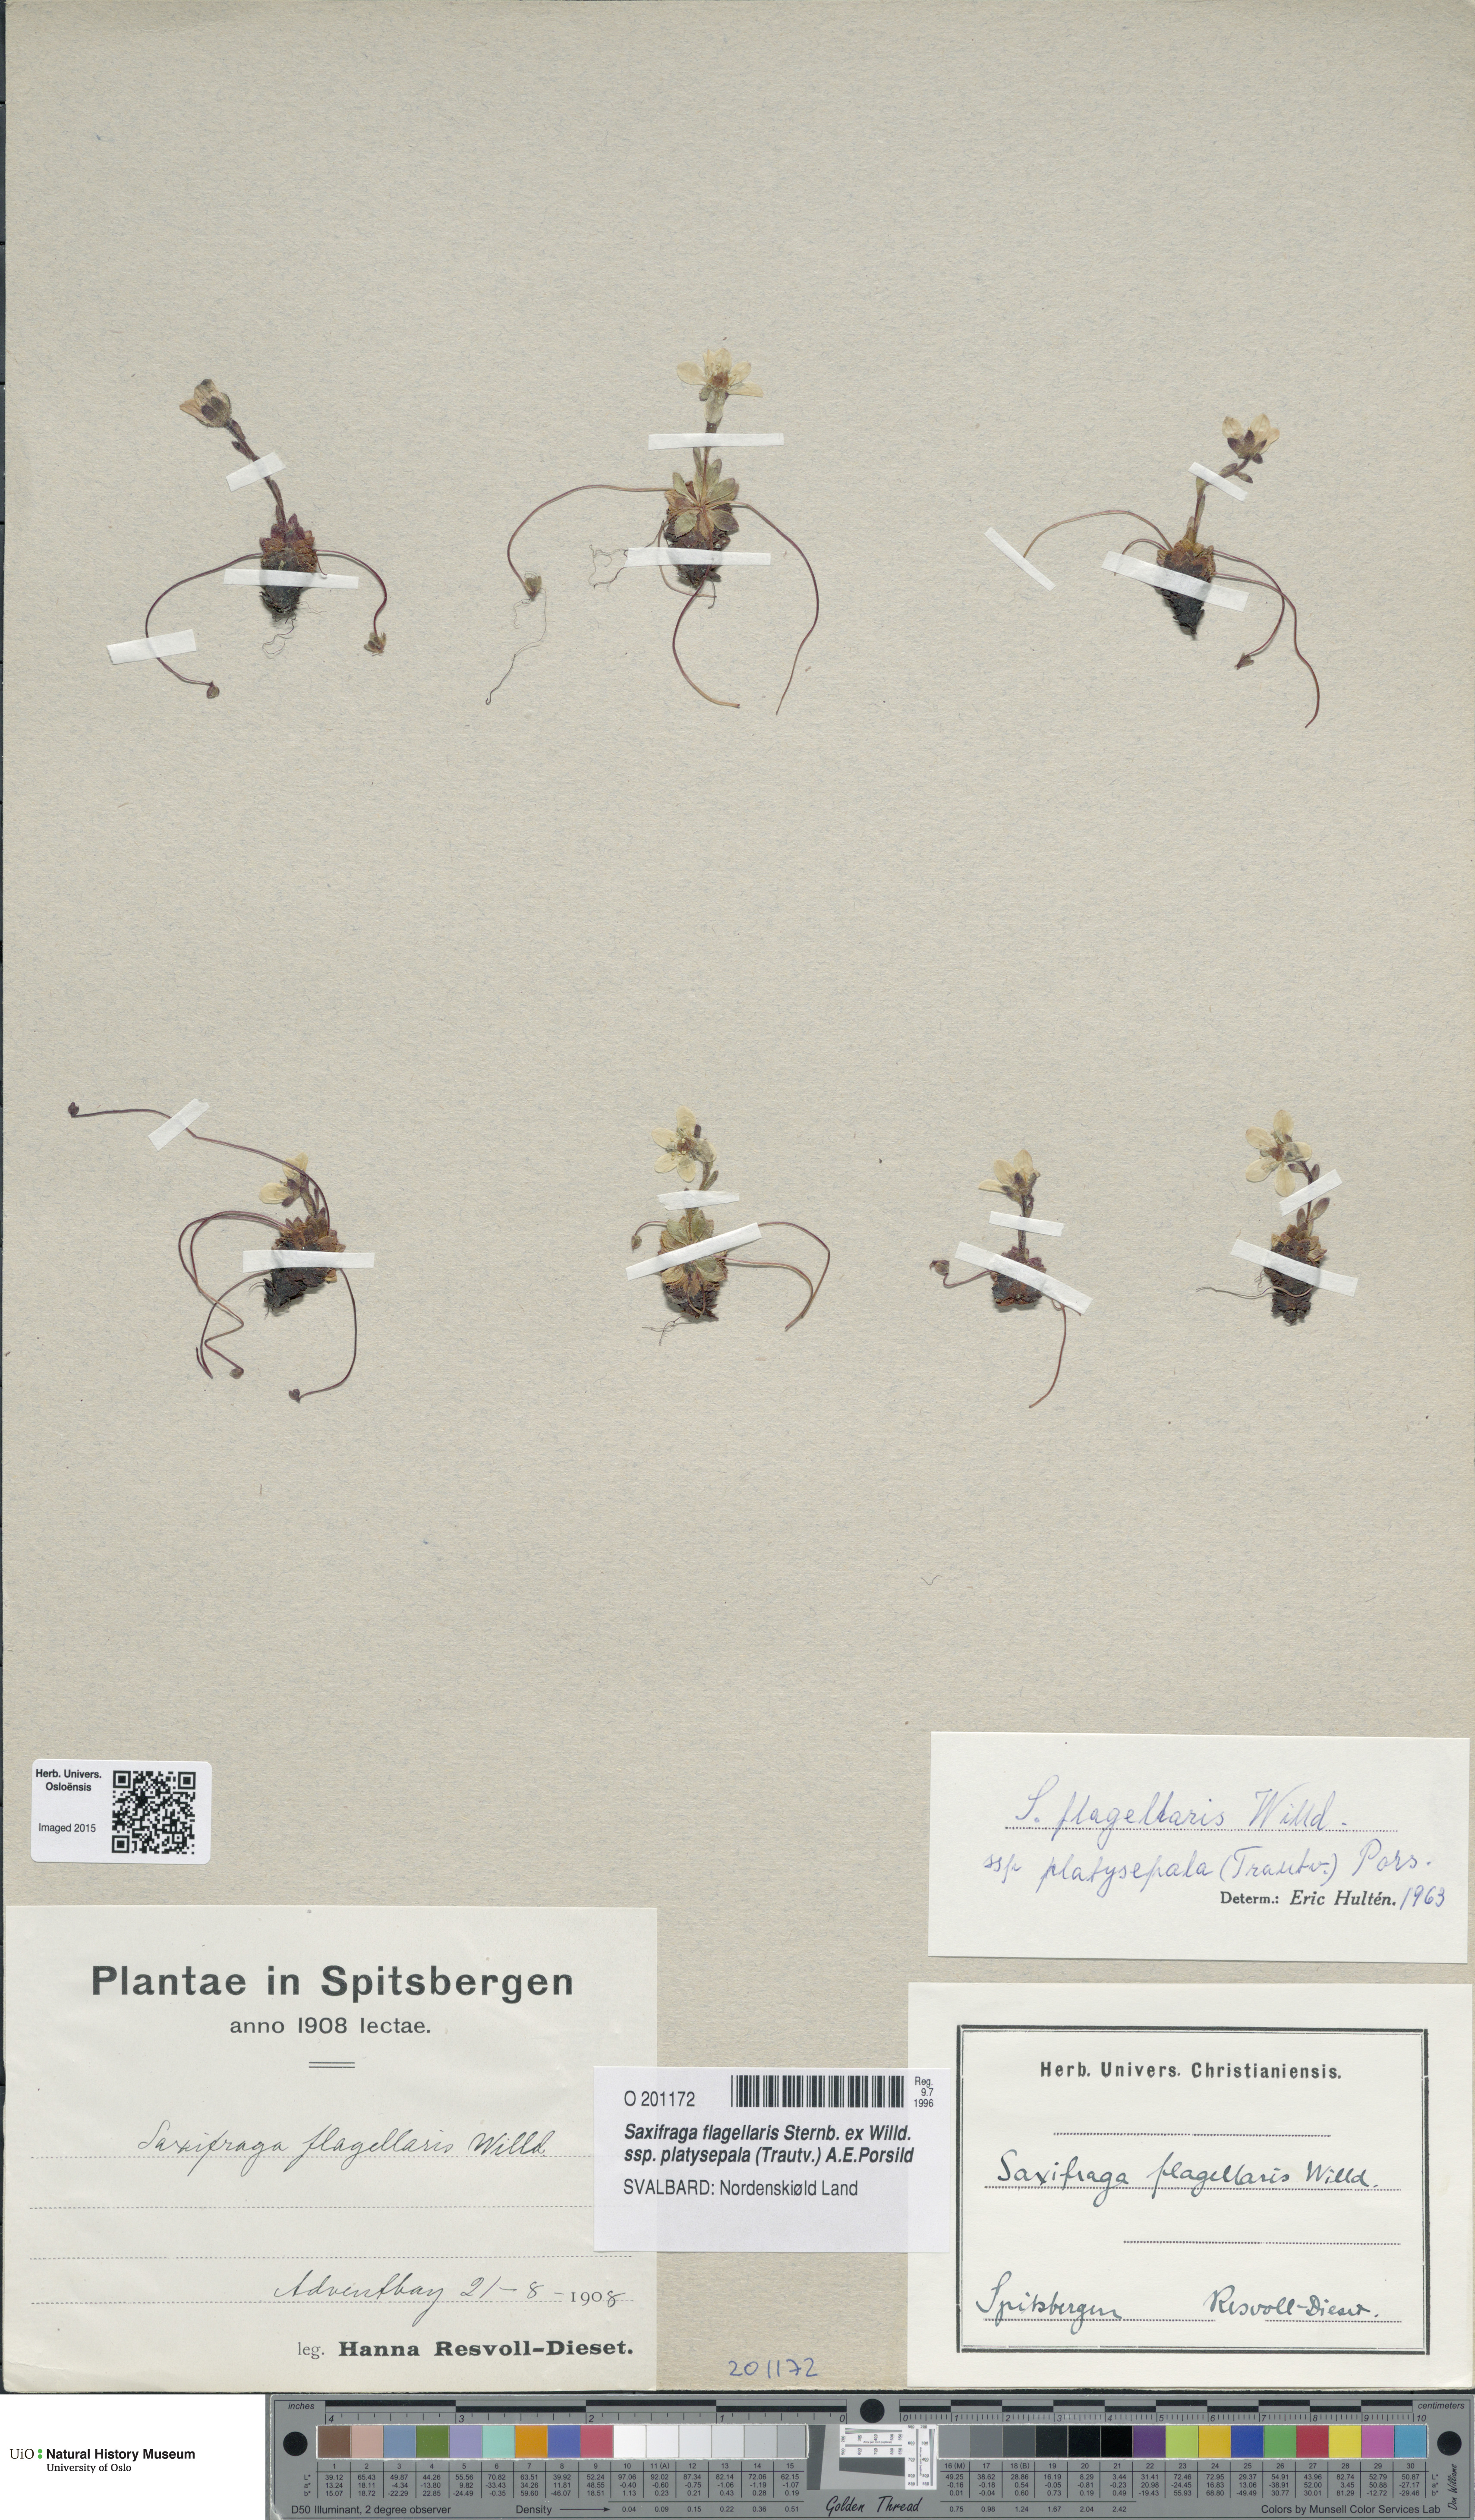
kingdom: Plantae
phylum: Tracheophyta
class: Magnoliopsida
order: Saxifragales
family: Saxifragaceae
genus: Saxifraga
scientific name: Saxifraga platysepala
